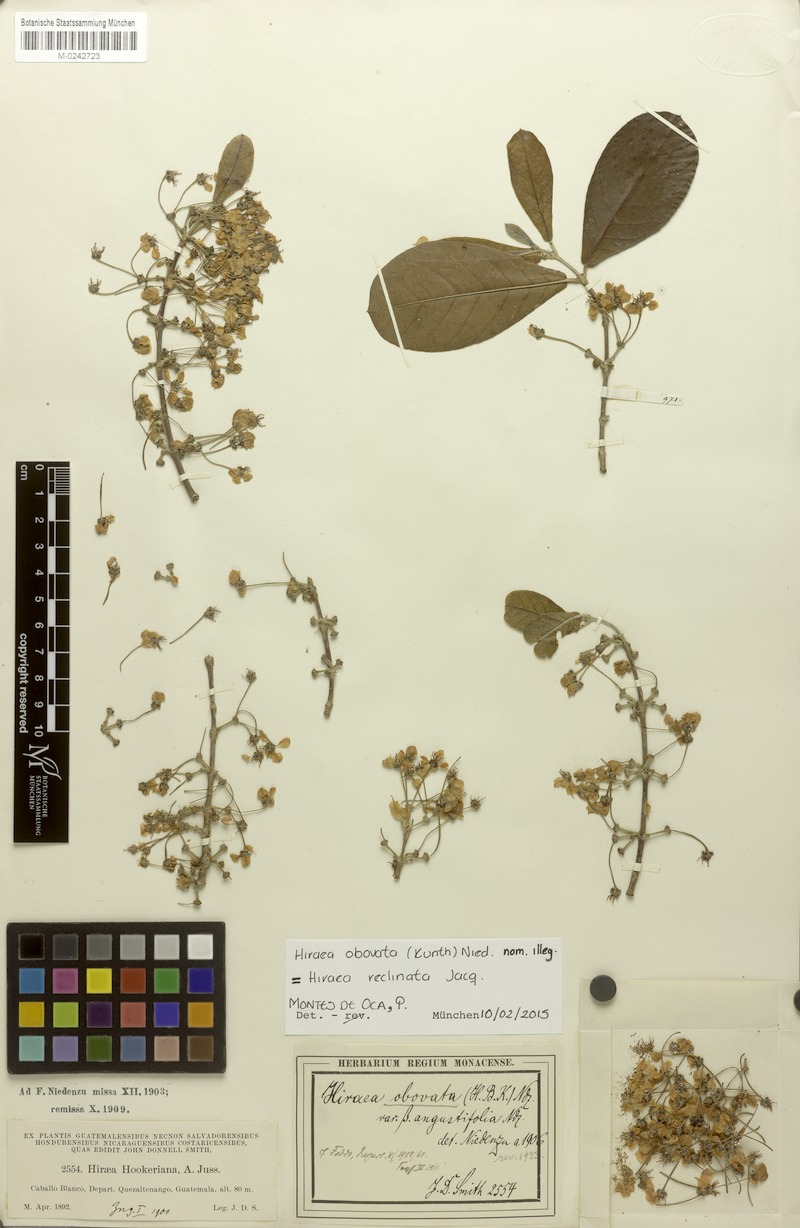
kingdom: Plantae
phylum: Tracheophyta
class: Magnoliopsida
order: Malpighiales
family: Malpighiaceae
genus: Hiraea
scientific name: Hiraea reclinata
